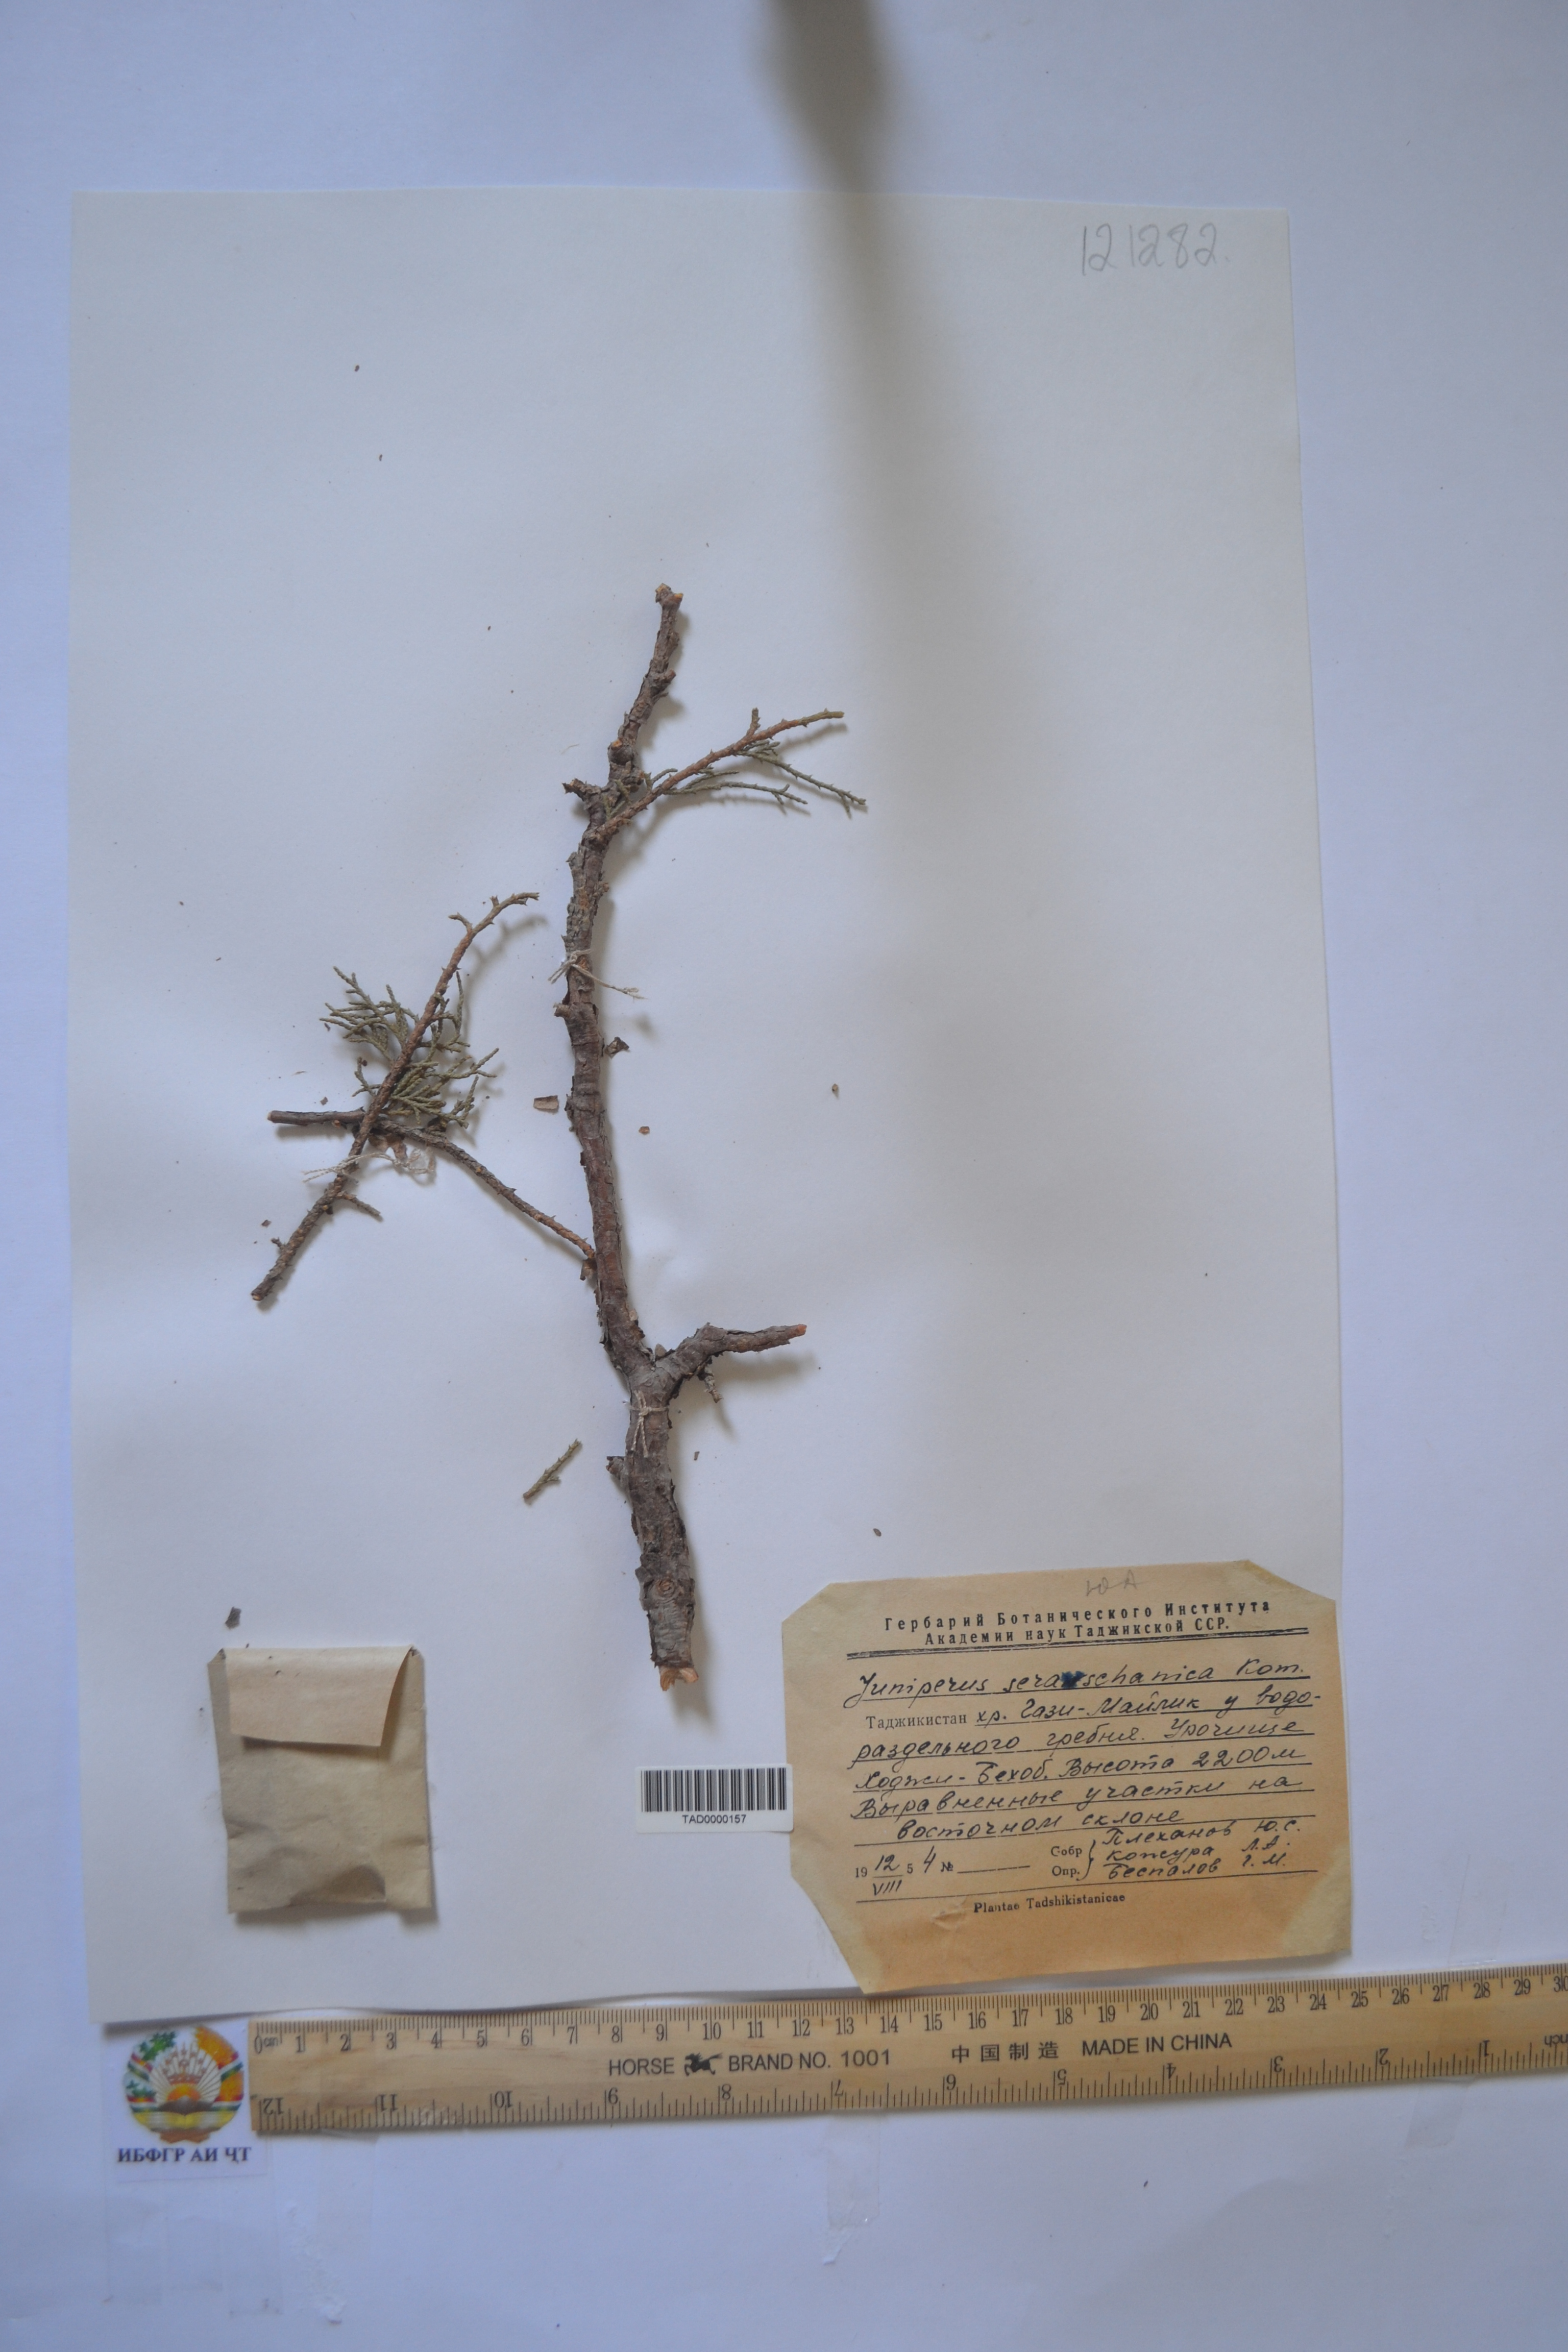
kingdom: Plantae
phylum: Tracheophyta
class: Pinopsida
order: Pinales
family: Cupressaceae
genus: Juniperus
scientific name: Juniperus excelsa
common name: Crimean juniper
